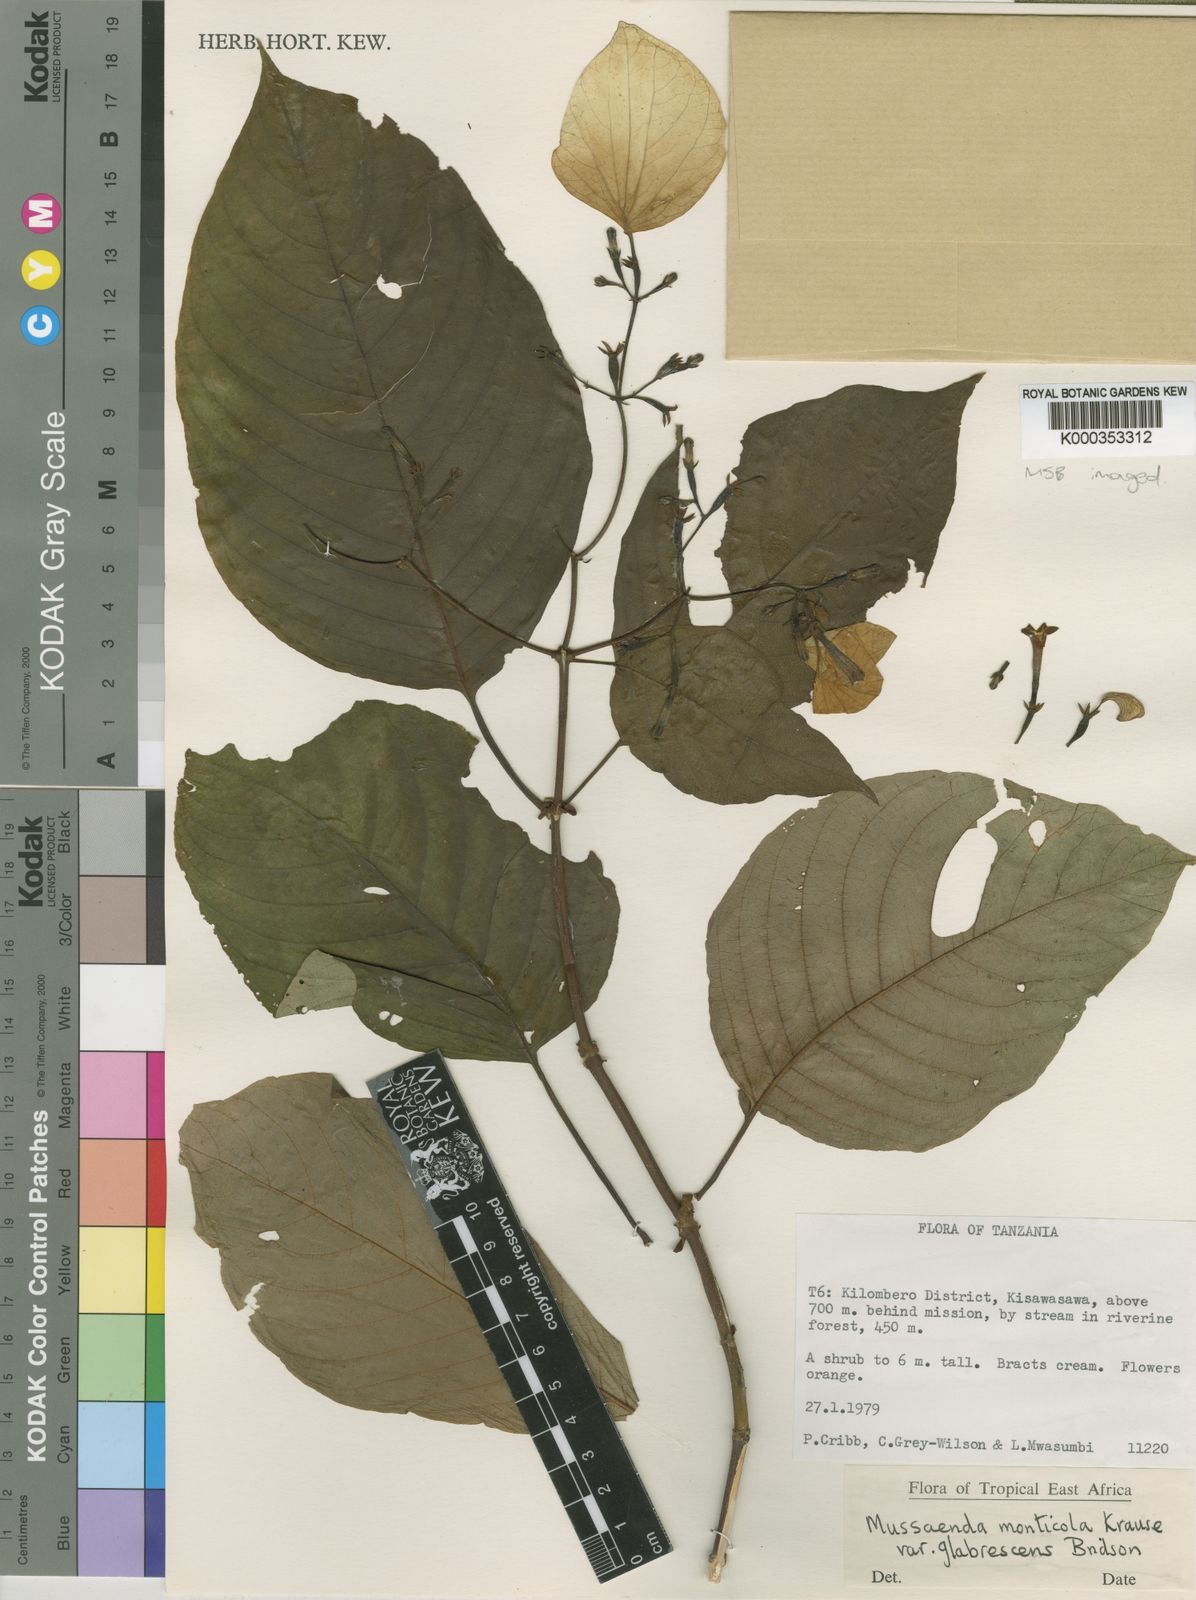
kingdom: Plantae
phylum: Tracheophyta
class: Magnoliopsida
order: Gentianales
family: Rubiaceae
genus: Mussaenda
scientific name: Mussaenda monticola
